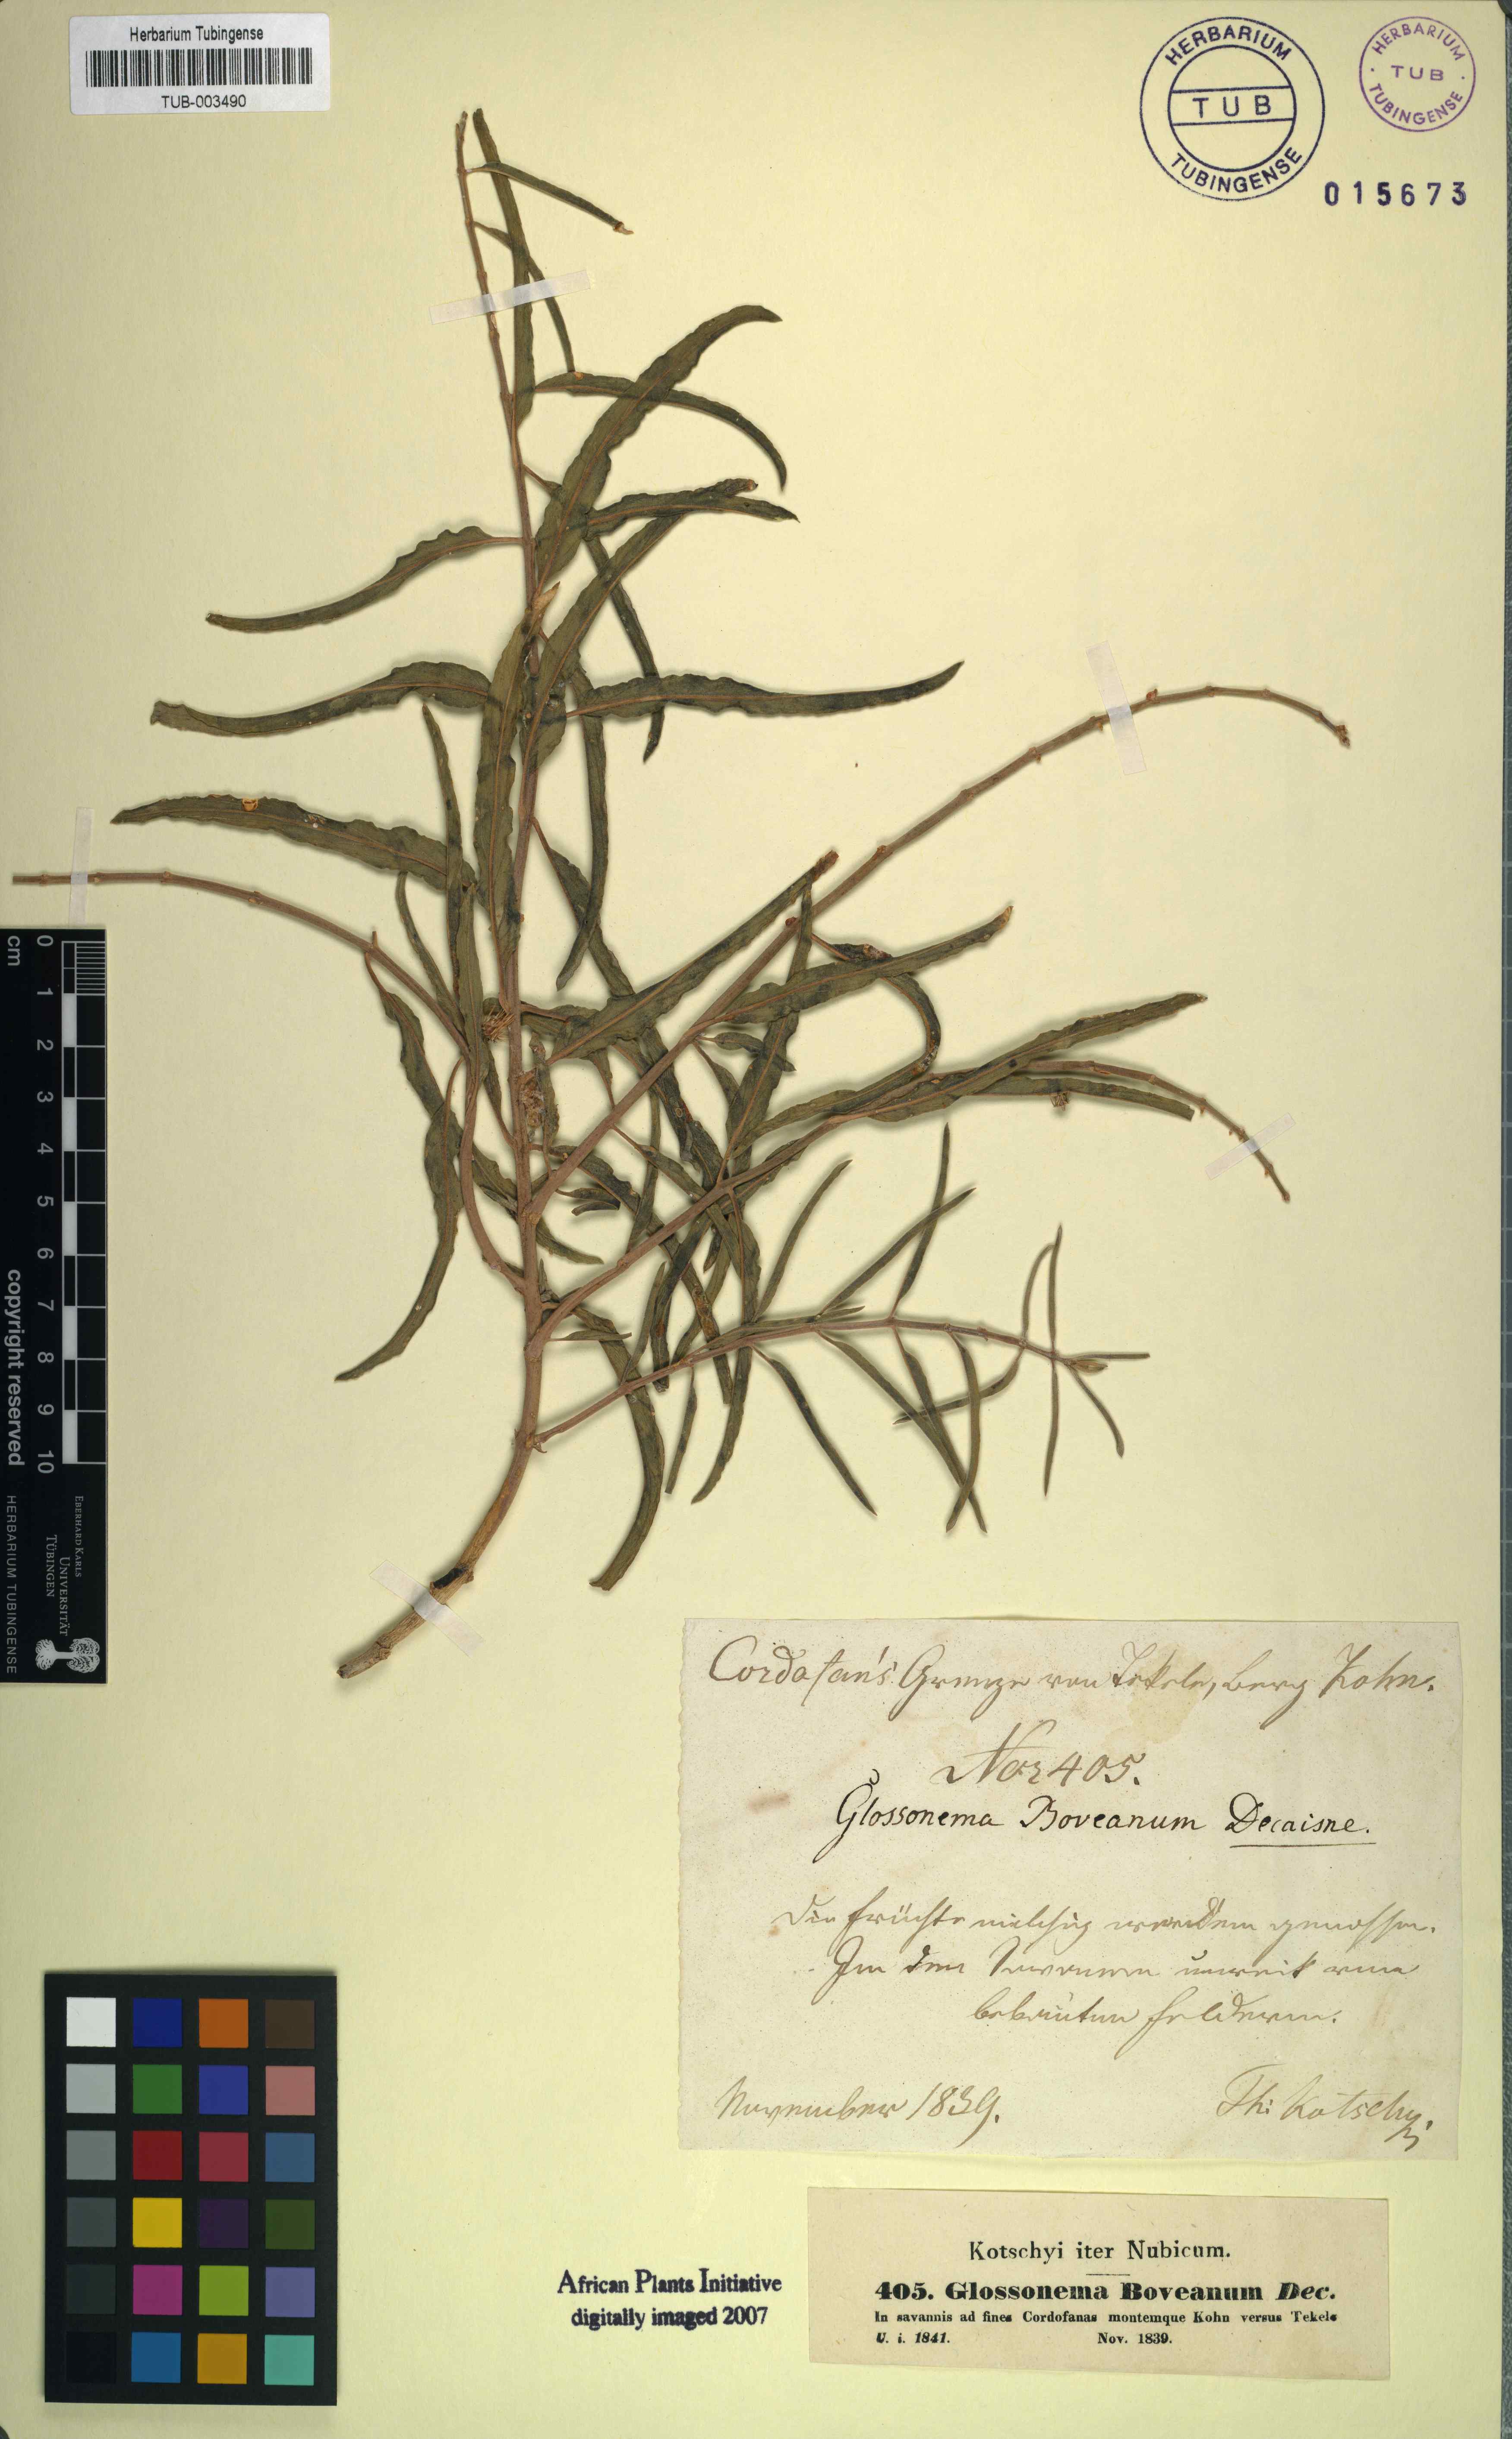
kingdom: Plantae
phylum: Tracheophyta
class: Magnoliopsida
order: Gentianales
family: Apocynaceae
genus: Cynanchum
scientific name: Cynanchum boveanum
